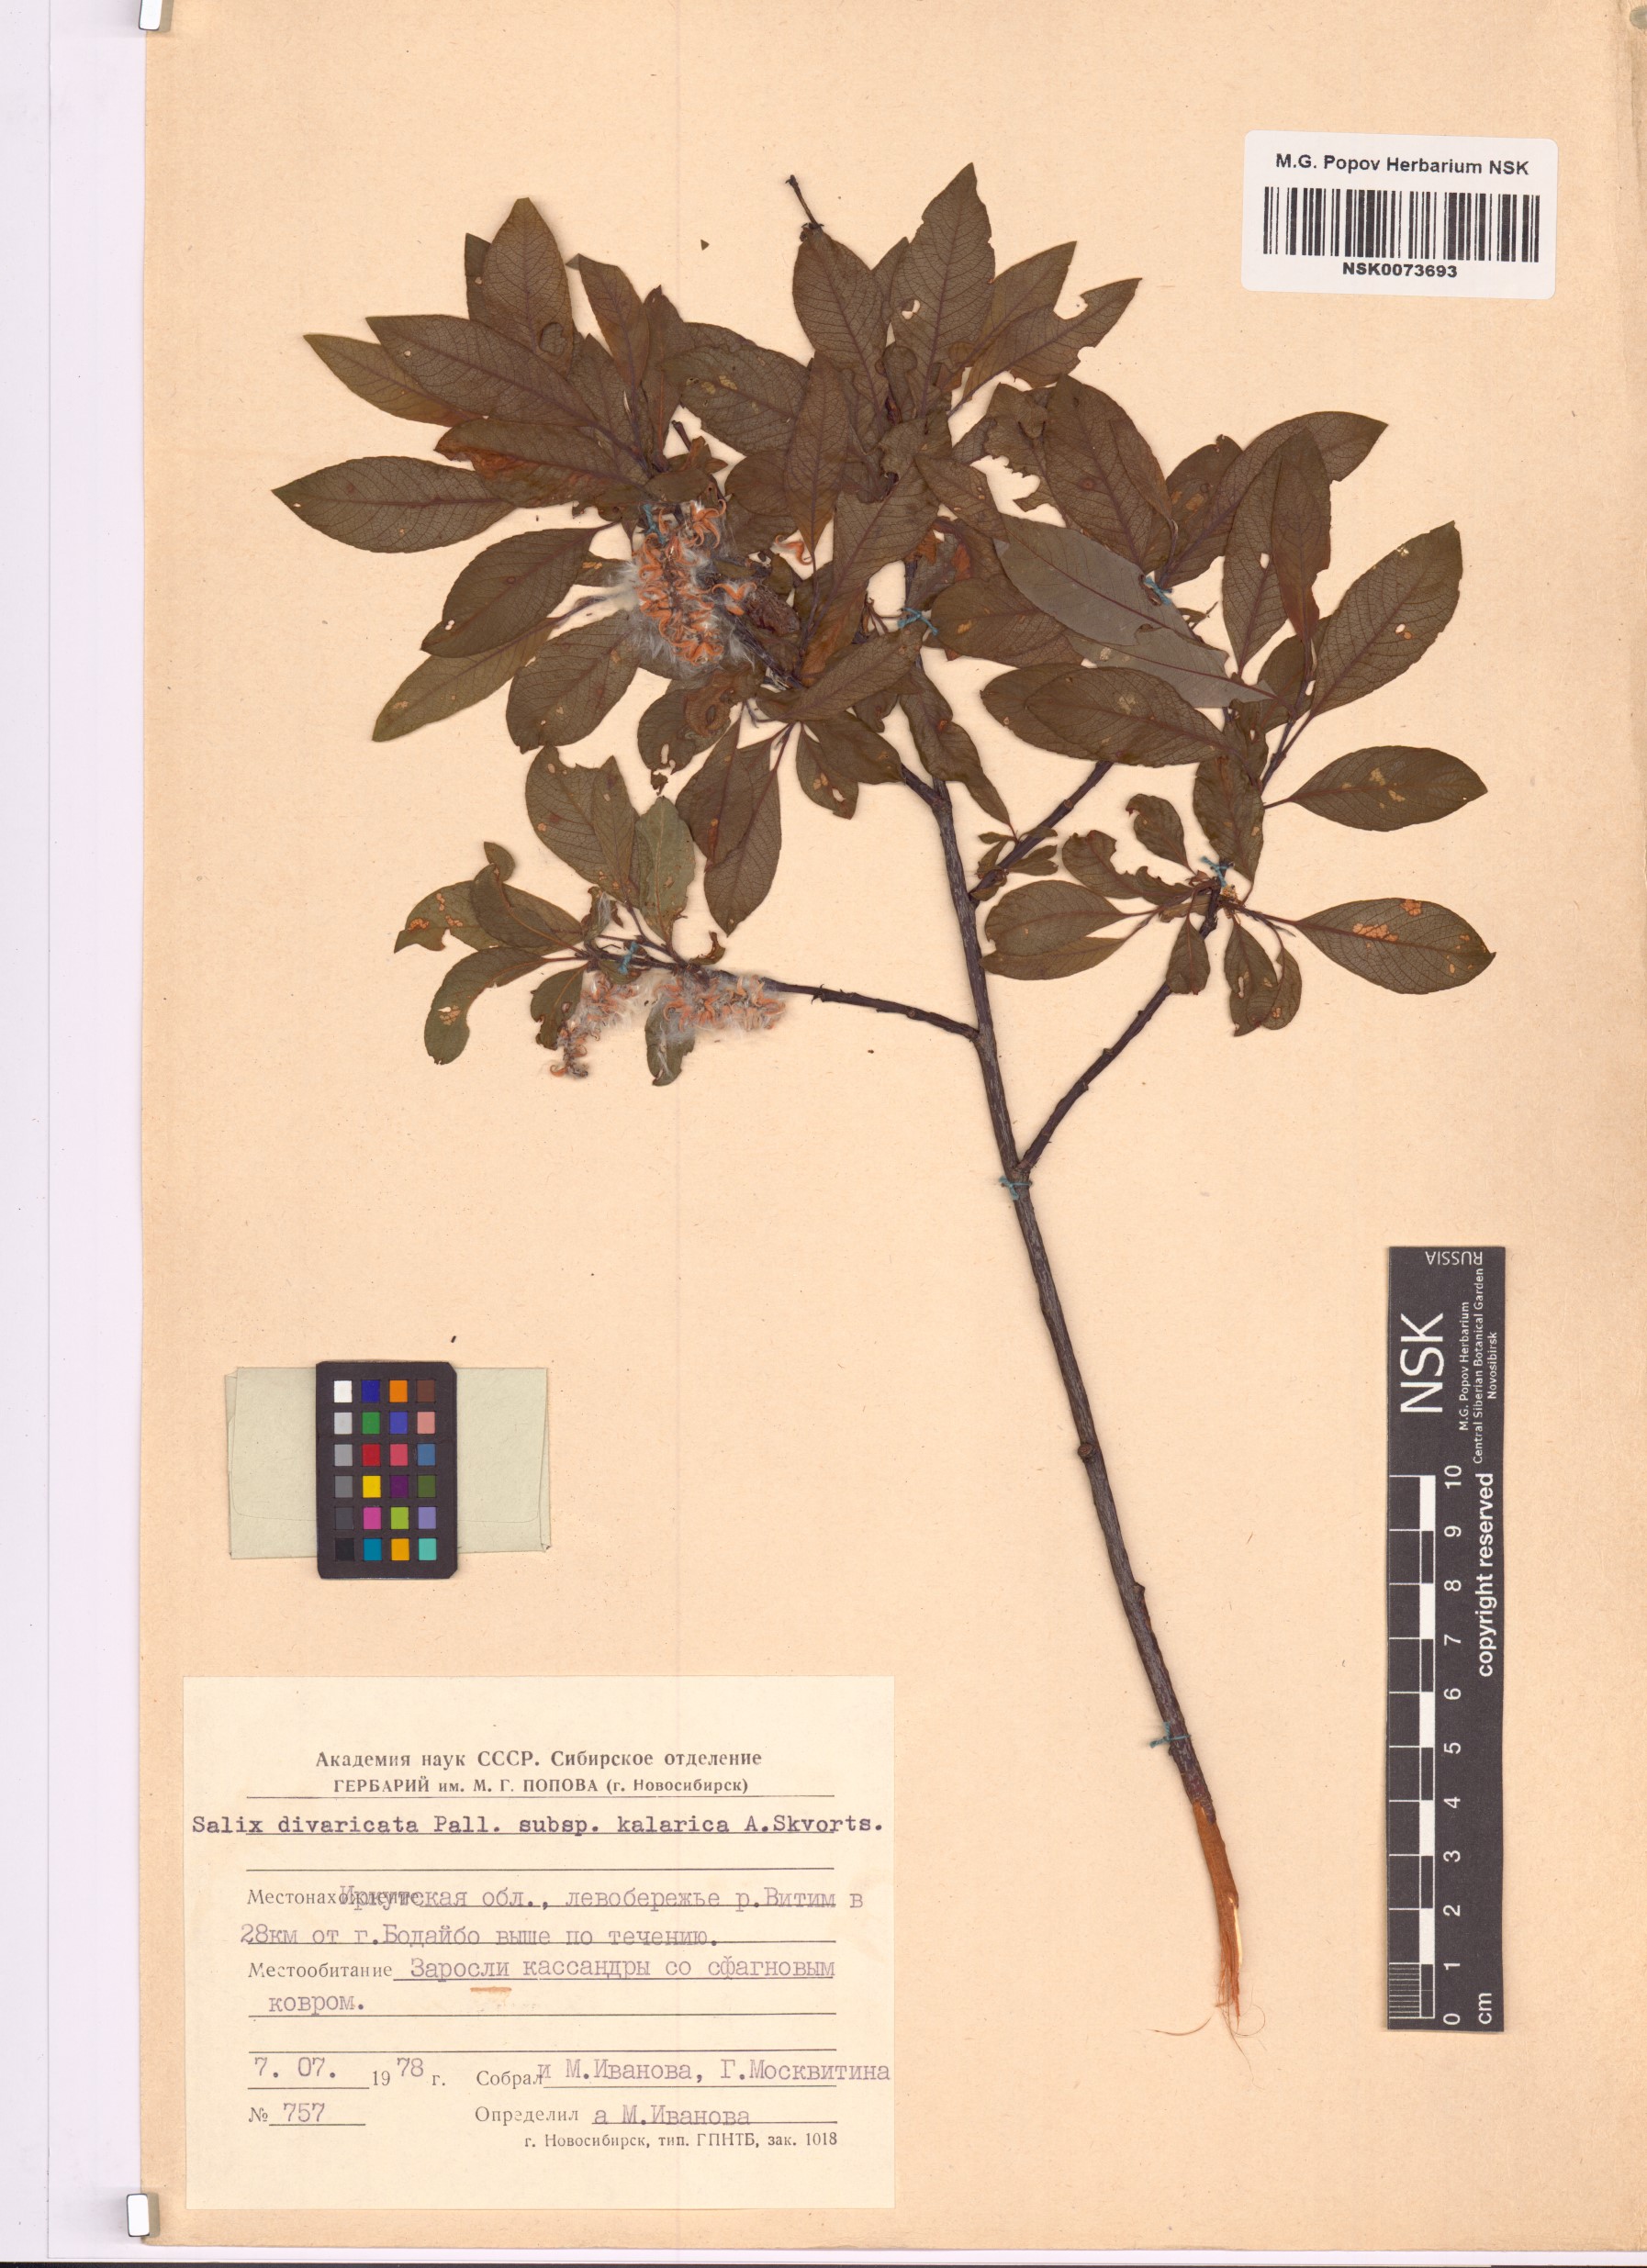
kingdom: Plantae
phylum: Tracheophyta
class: Magnoliopsida
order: Malpighiales
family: Salicaceae
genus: Salix
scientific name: Salix kalarica
